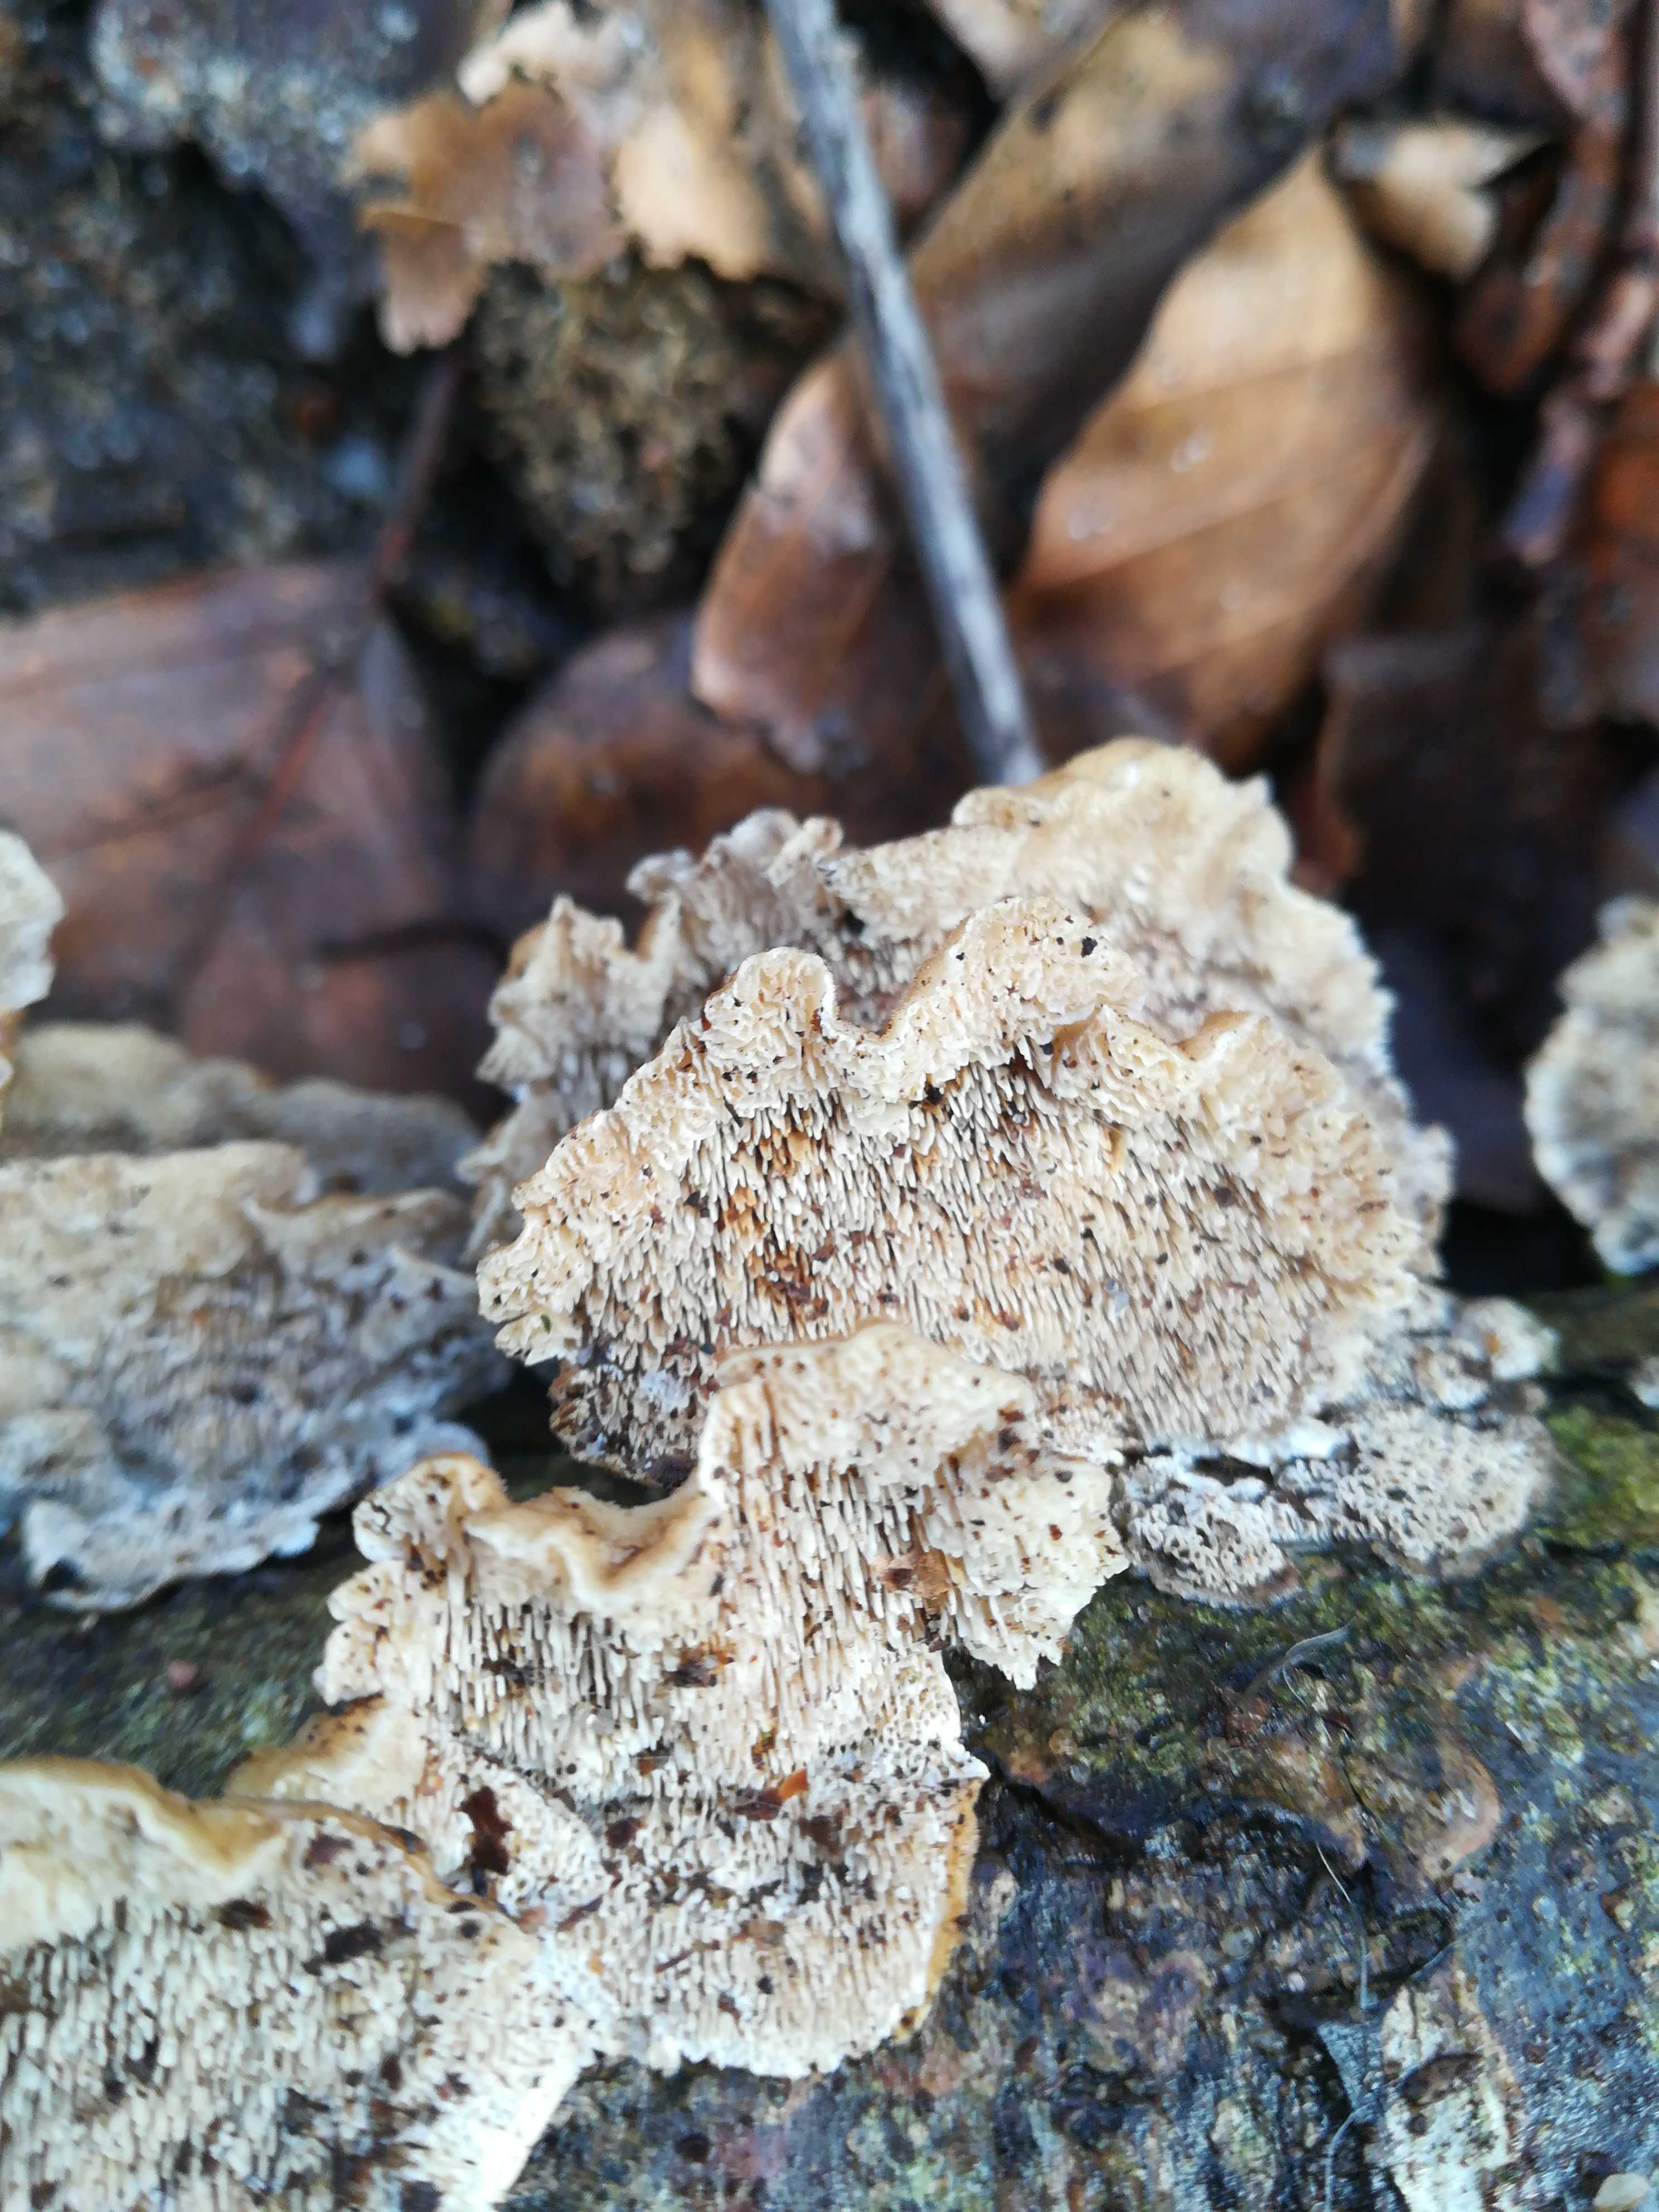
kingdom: Fungi
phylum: Basidiomycota
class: Agaricomycetes
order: Polyporales
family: Polyporaceae
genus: Trametes
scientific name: Trametes versicolor
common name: broget læderporesvamp
